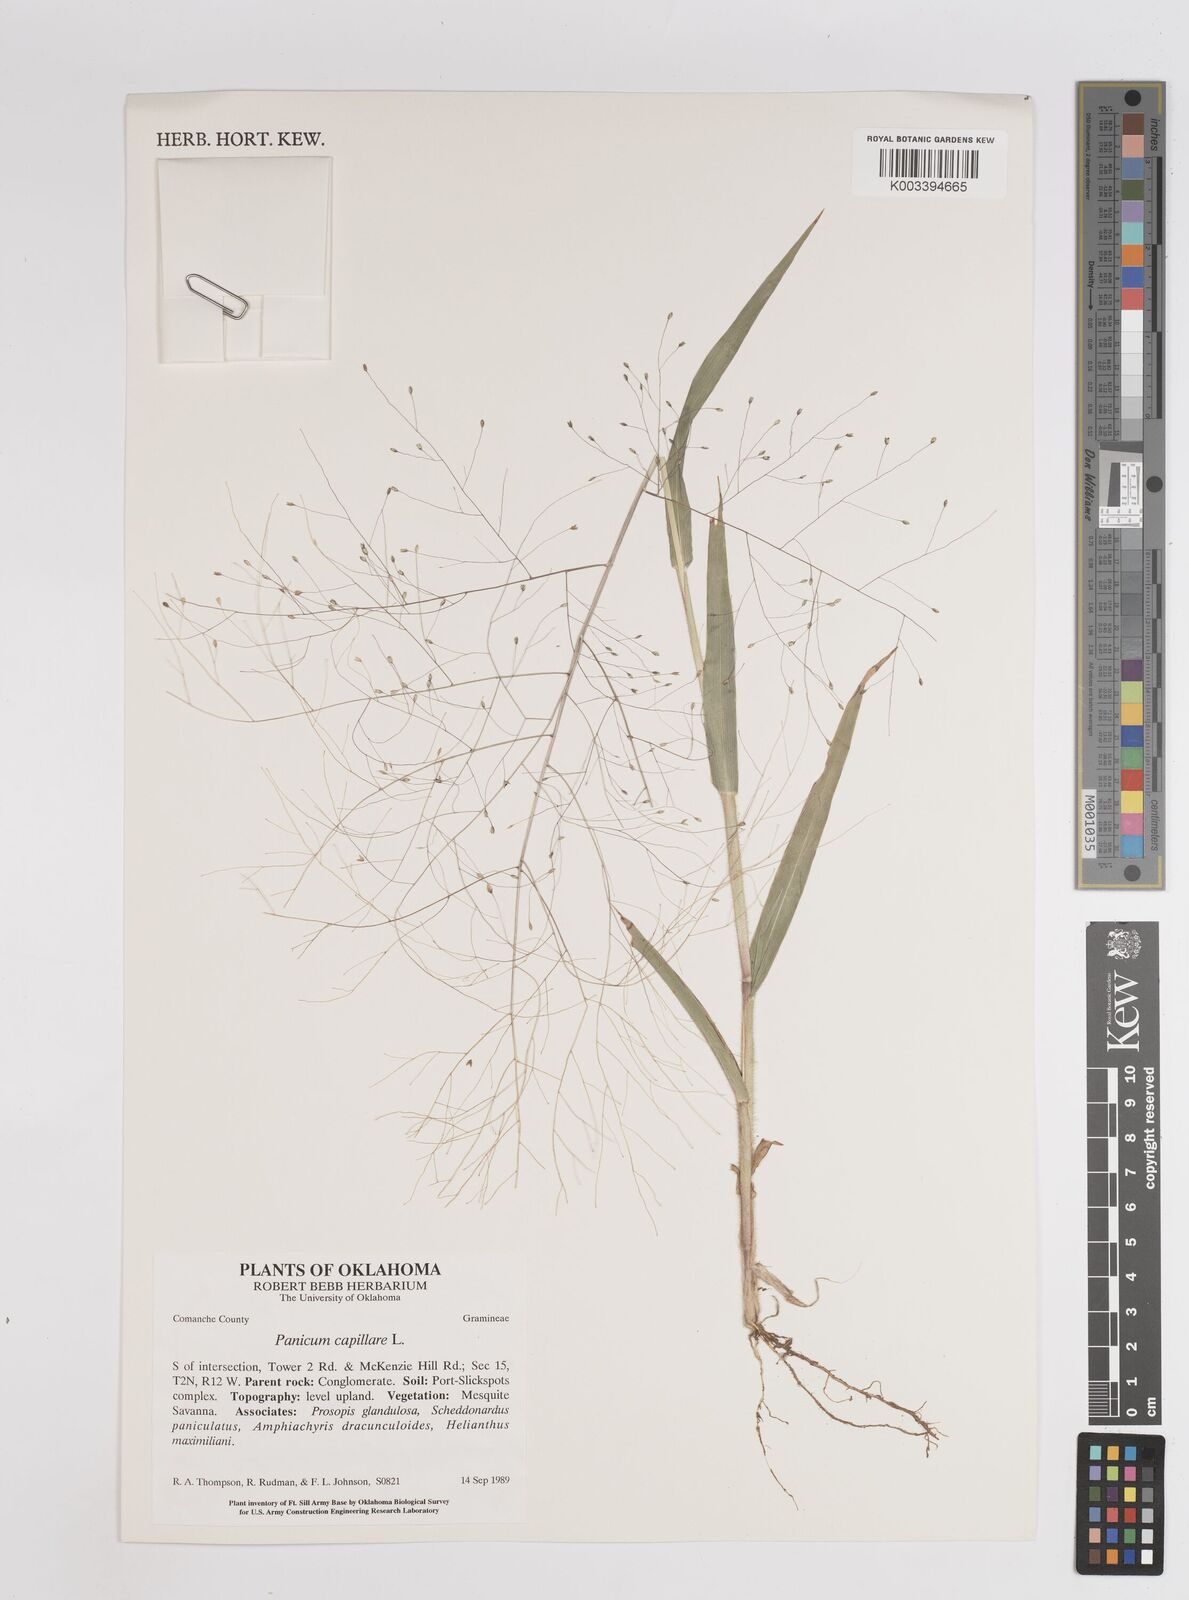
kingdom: Plantae
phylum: Tracheophyta
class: Liliopsida
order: Poales
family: Poaceae
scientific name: Poaceae
